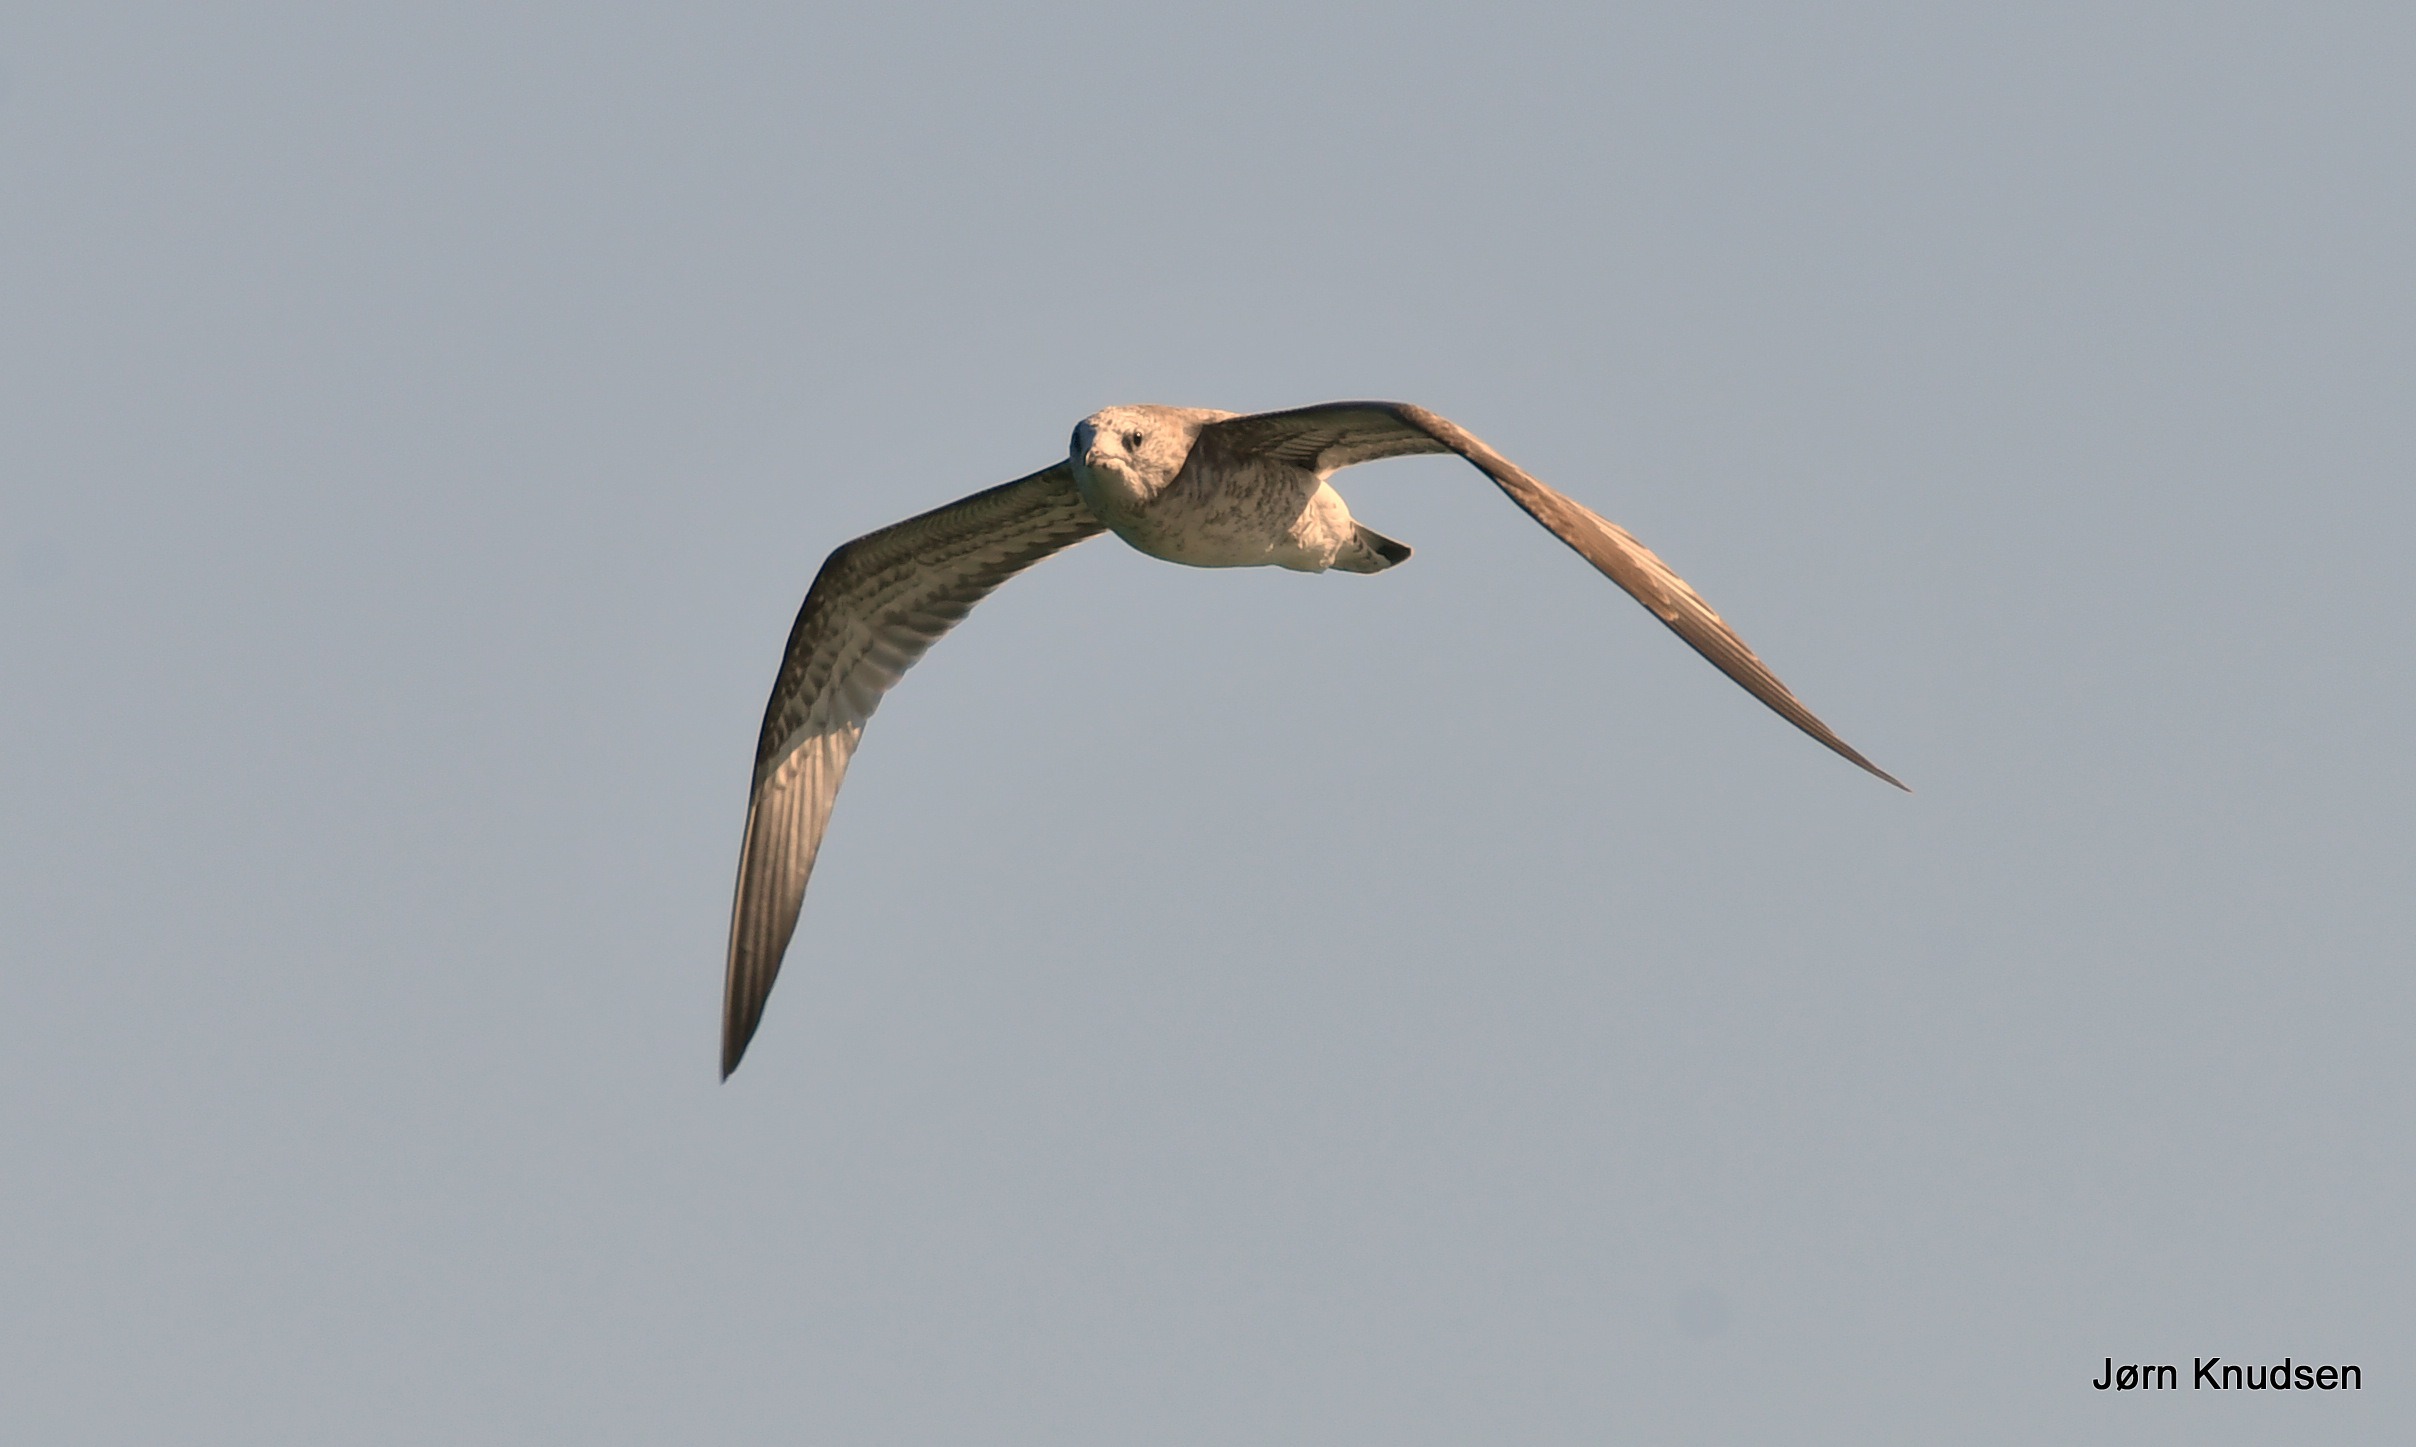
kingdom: Animalia
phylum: Chordata
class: Aves
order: Charadriiformes
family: Laridae
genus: Larus
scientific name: Larus canus
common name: Stormmåge
